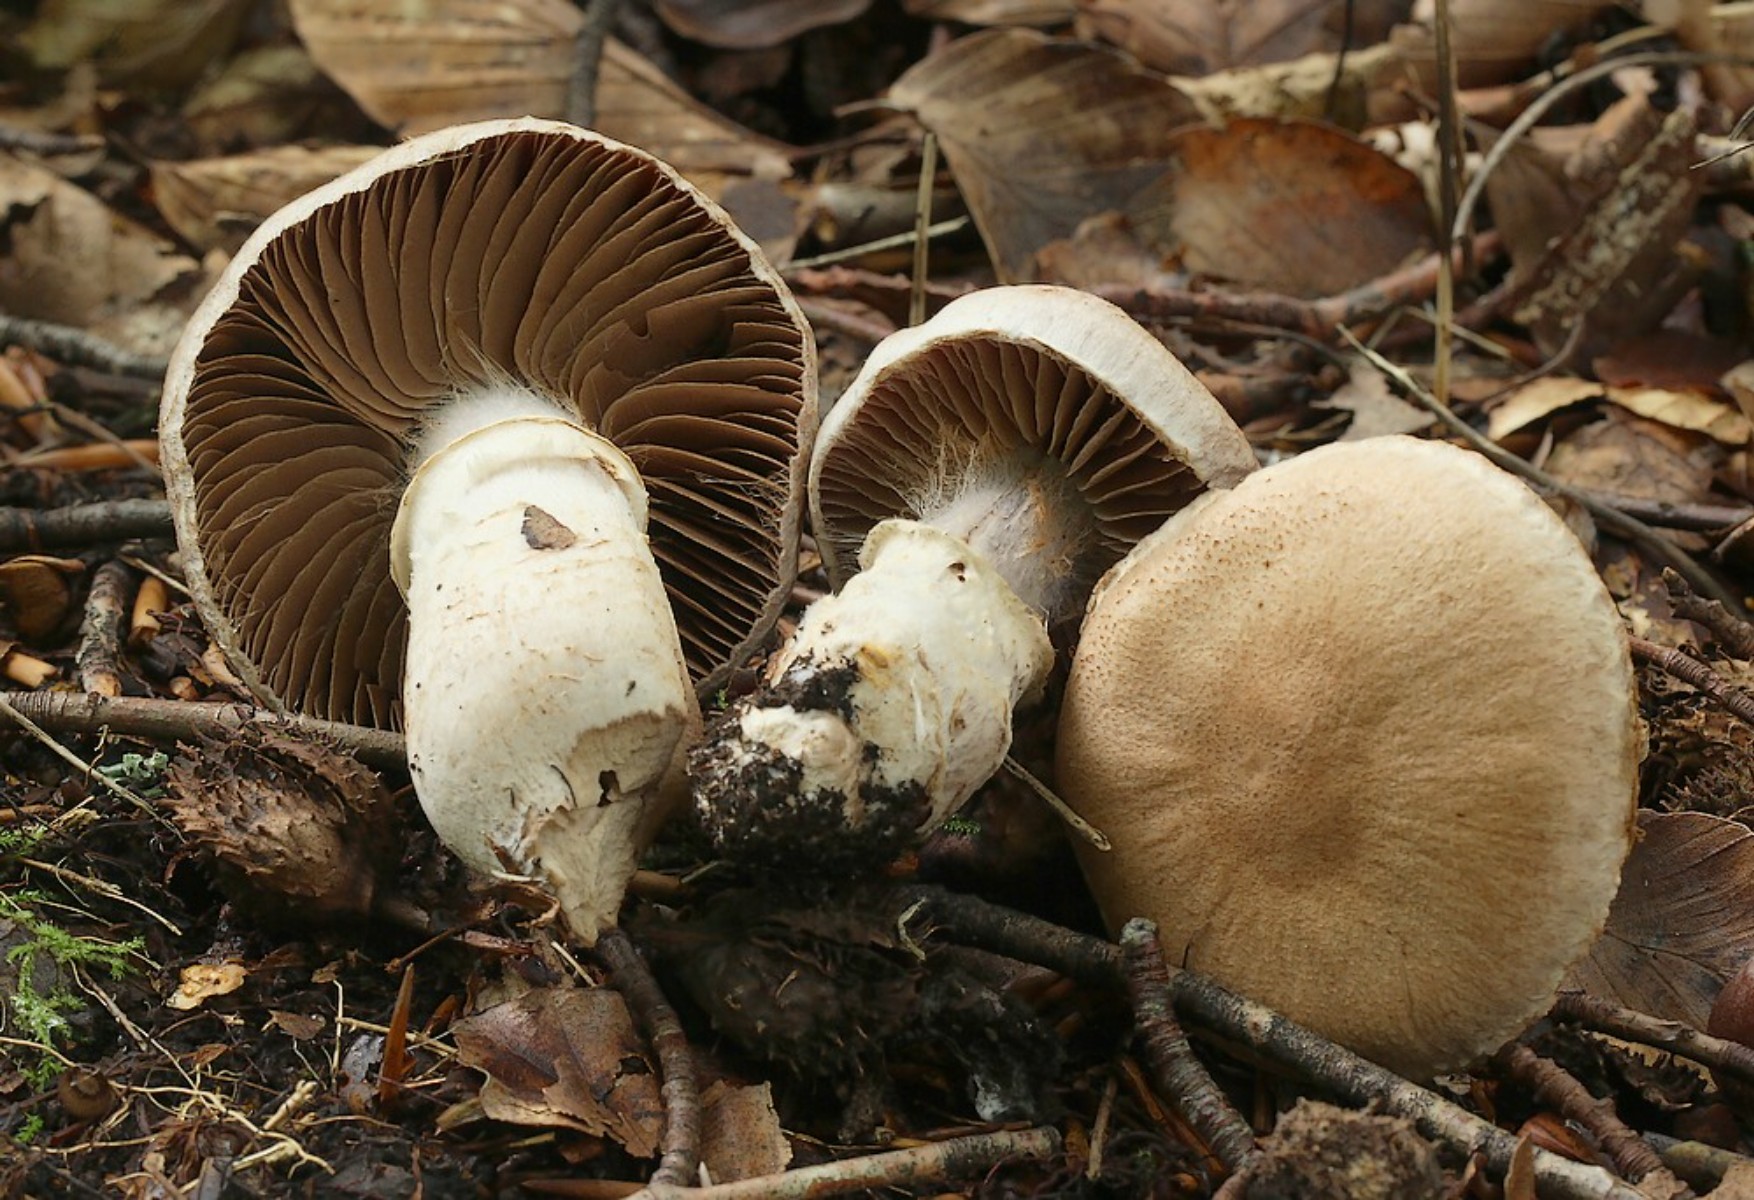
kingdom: Fungi
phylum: Basidiomycota
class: Agaricomycetes
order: Agaricales
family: Cortinariaceae
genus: Cortinarius
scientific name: Cortinarius torvus
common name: champignonagtig slørhat
